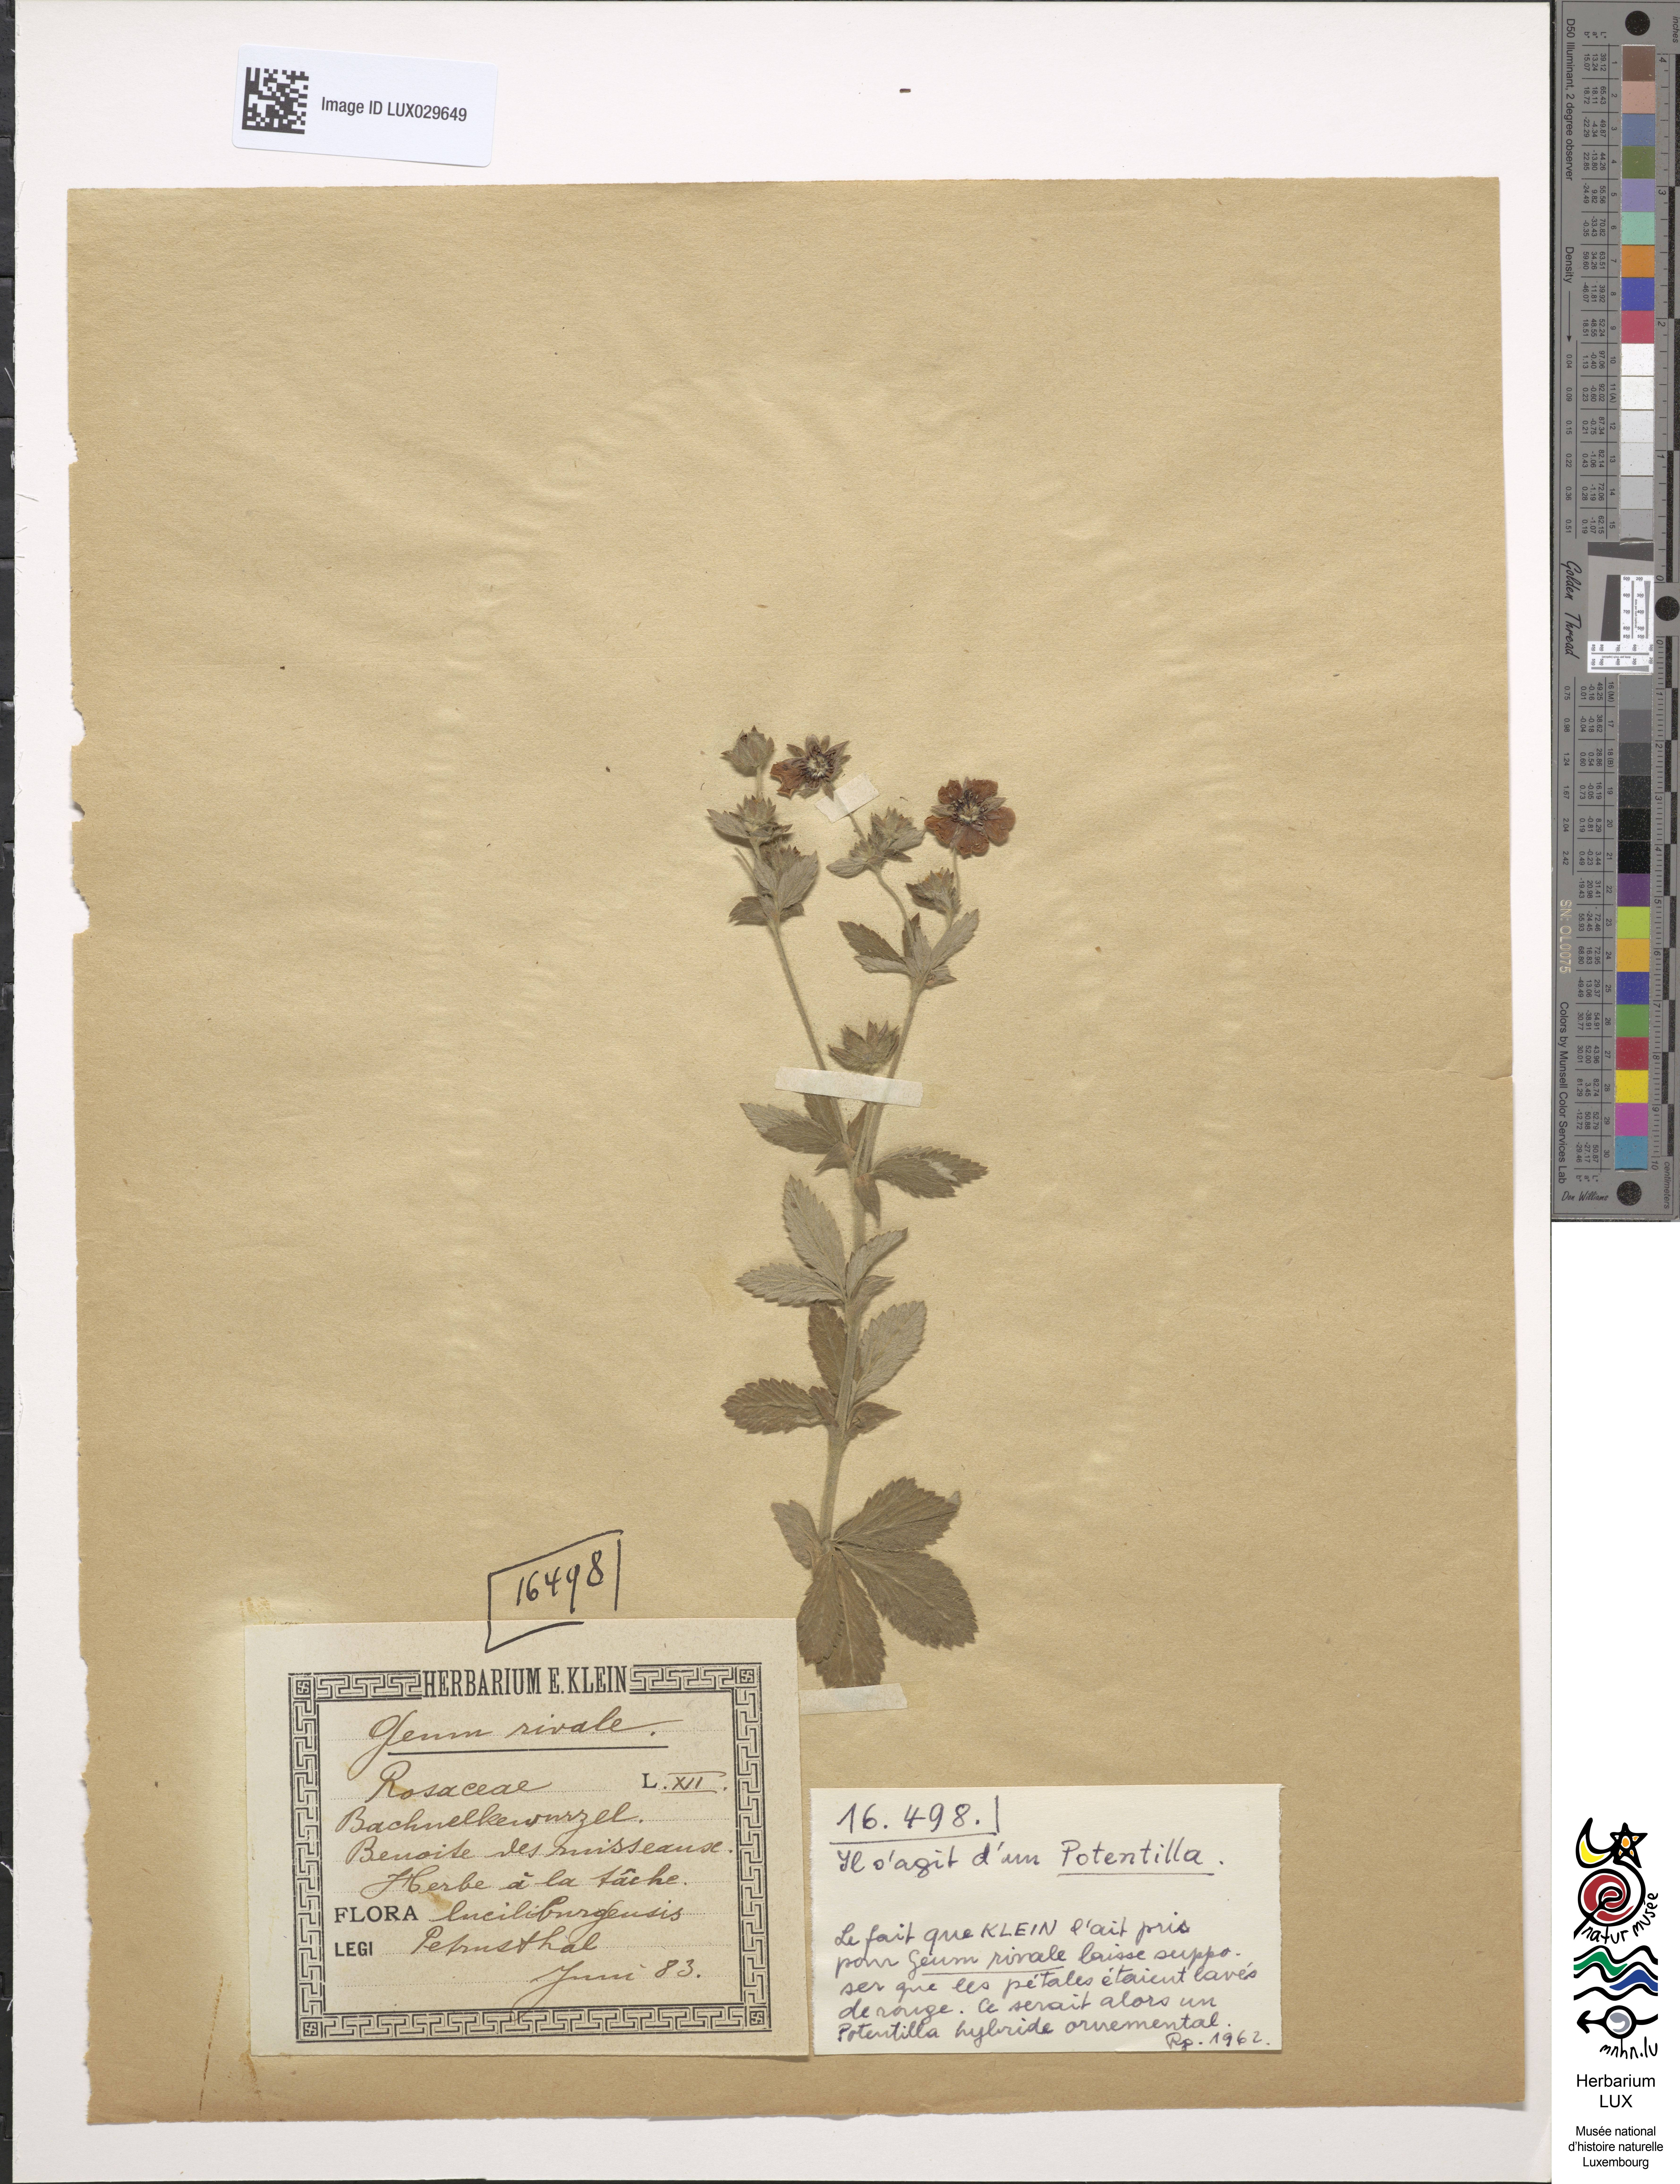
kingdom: Plantae
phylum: Tracheophyta
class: Magnoliopsida
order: Rosales
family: Rosaceae
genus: Geum
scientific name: Geum rivale
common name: Water avens
